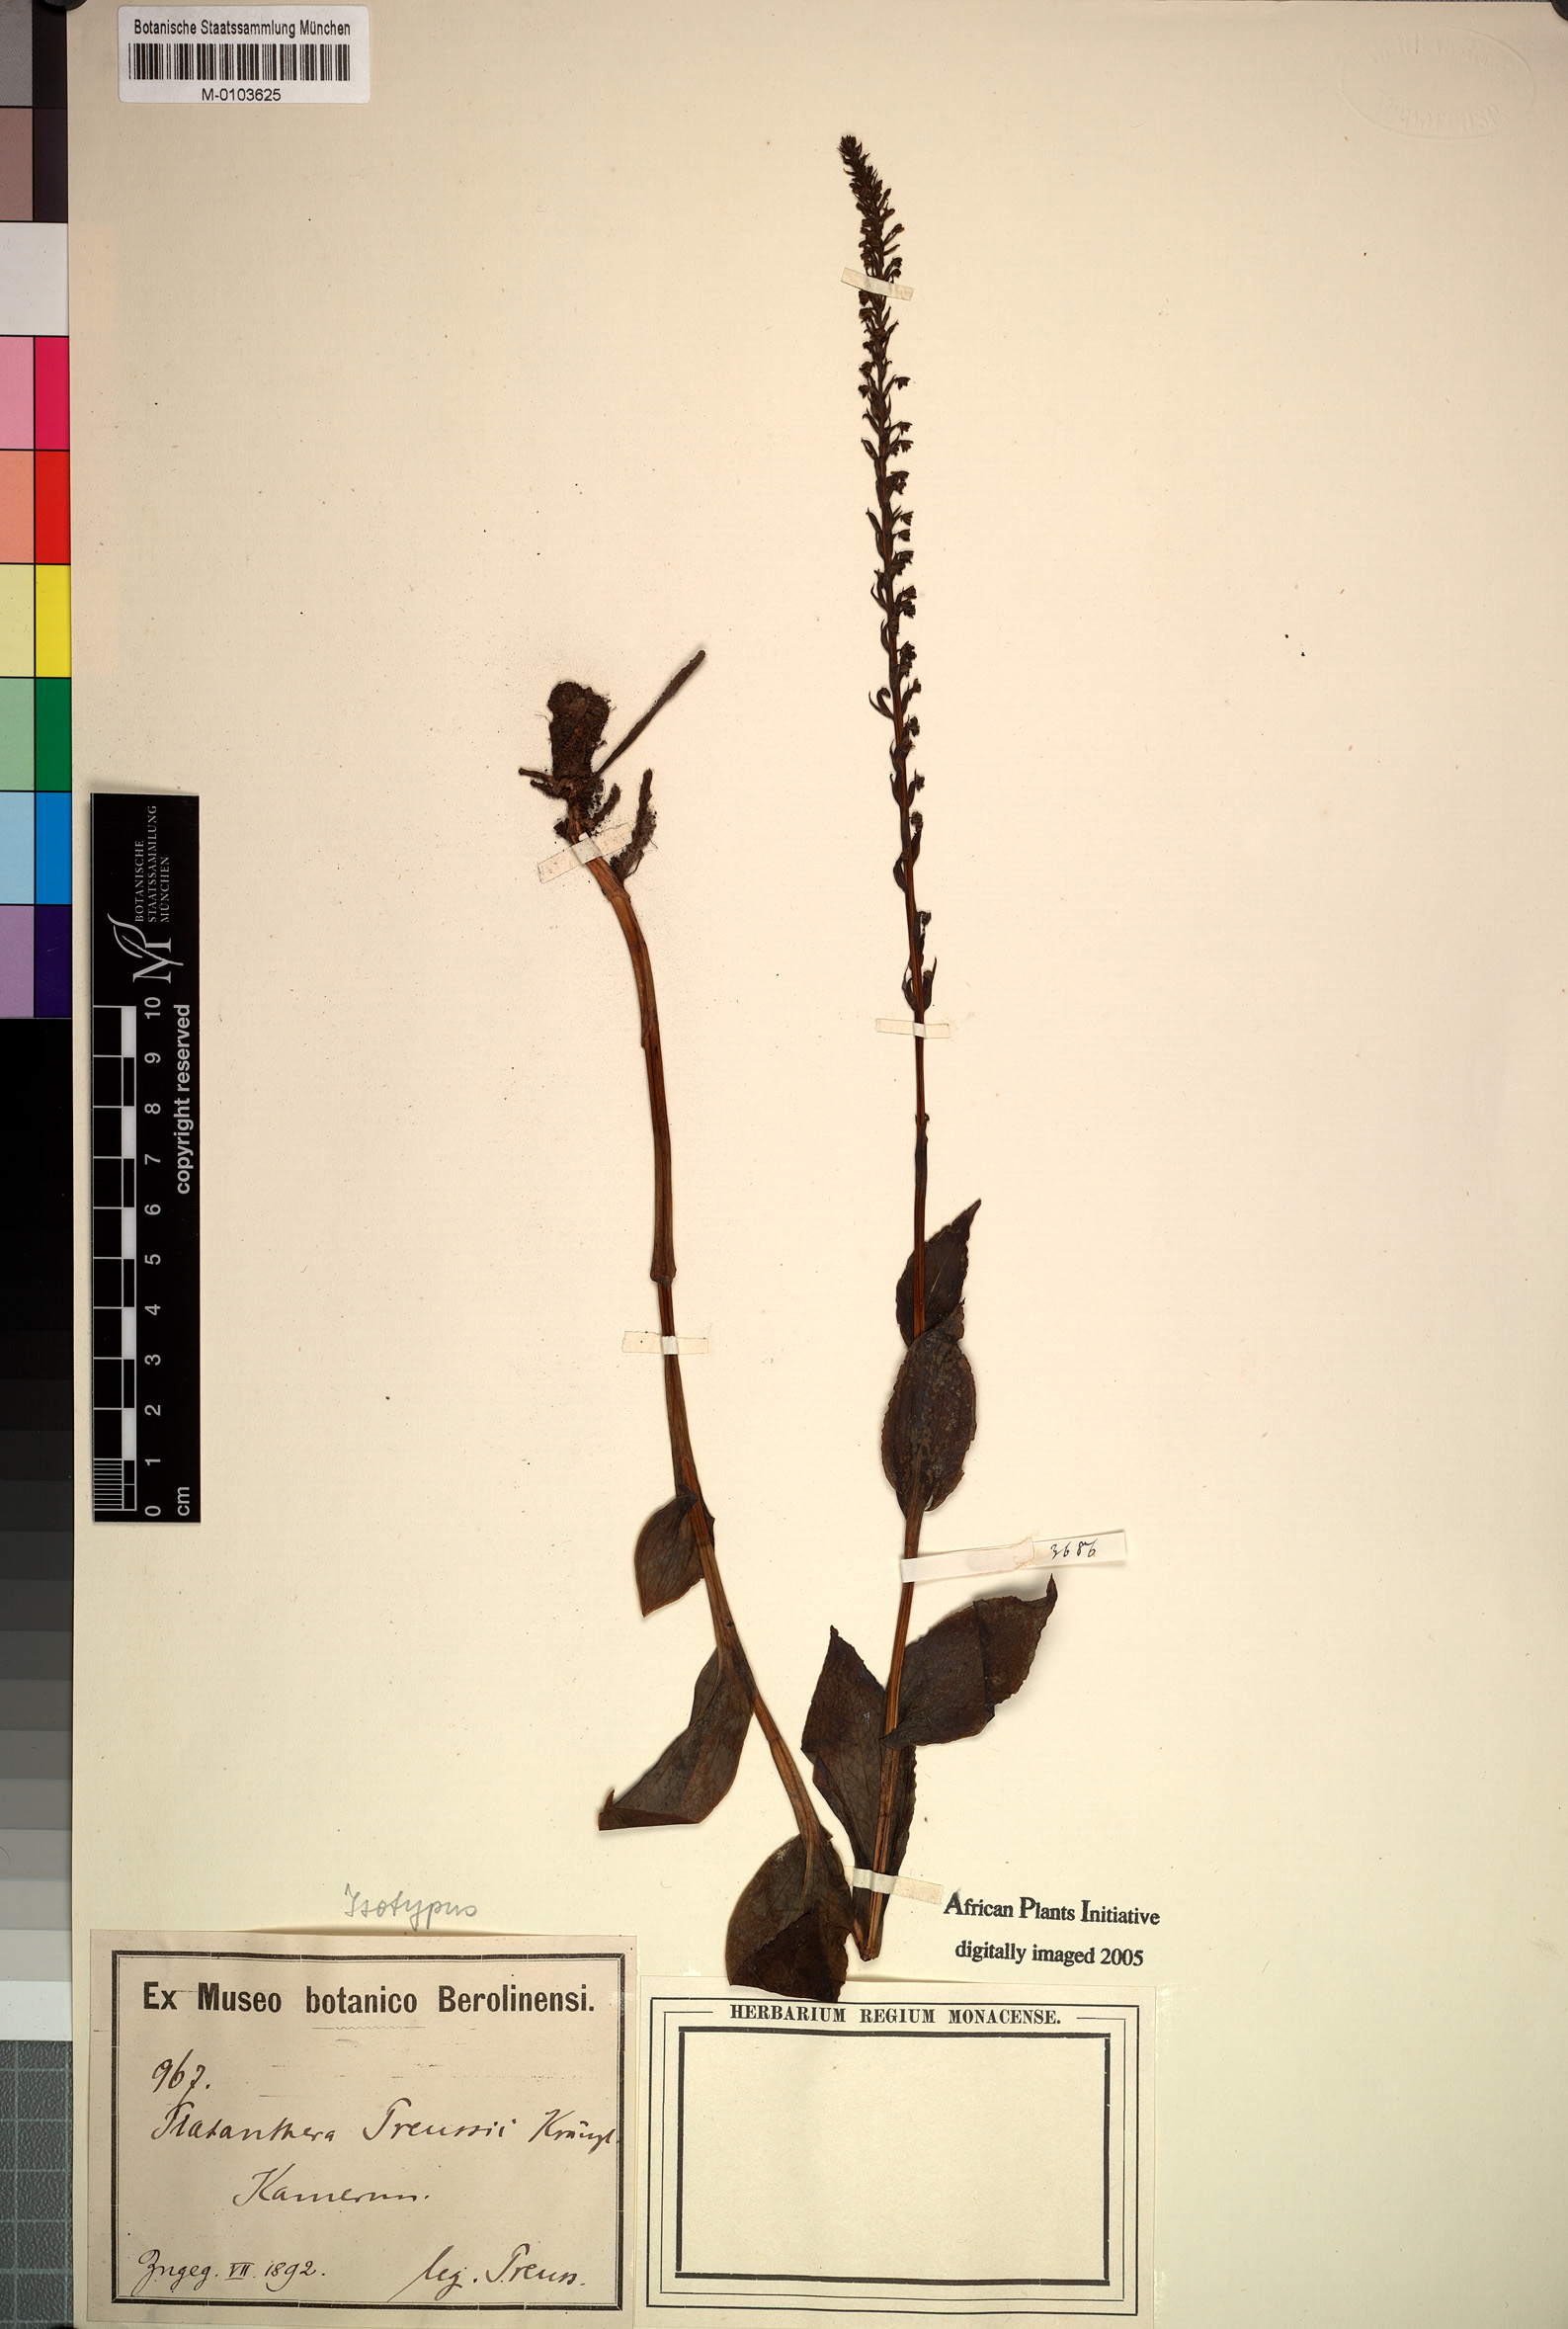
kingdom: Plantae
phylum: Tracheophyta
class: Liliopsida
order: Asparagales
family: Orchidaceae
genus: Habenaria
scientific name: Habenaria microceras
